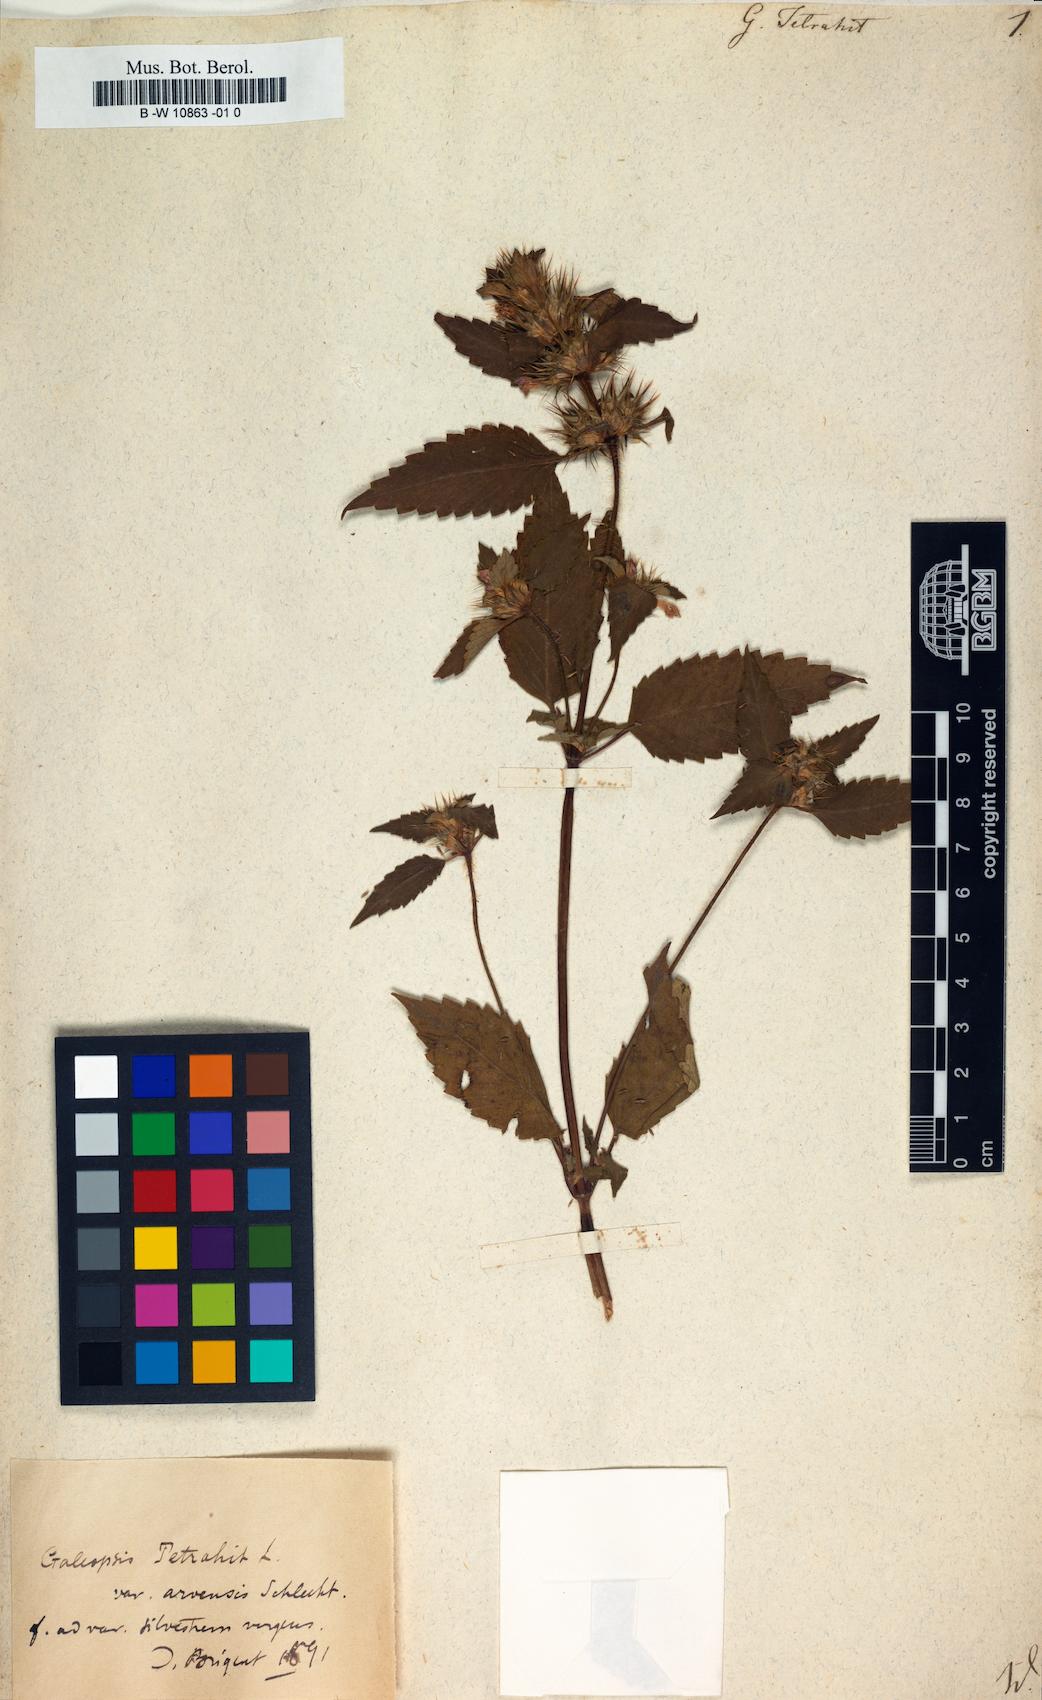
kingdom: Plantae
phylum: Tracheophyta
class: Magnoliopsida
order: Lamiales
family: Lamiaceae
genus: Galeopsis
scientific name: Galeopsis tetrahit
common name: Common hemp-nettle
